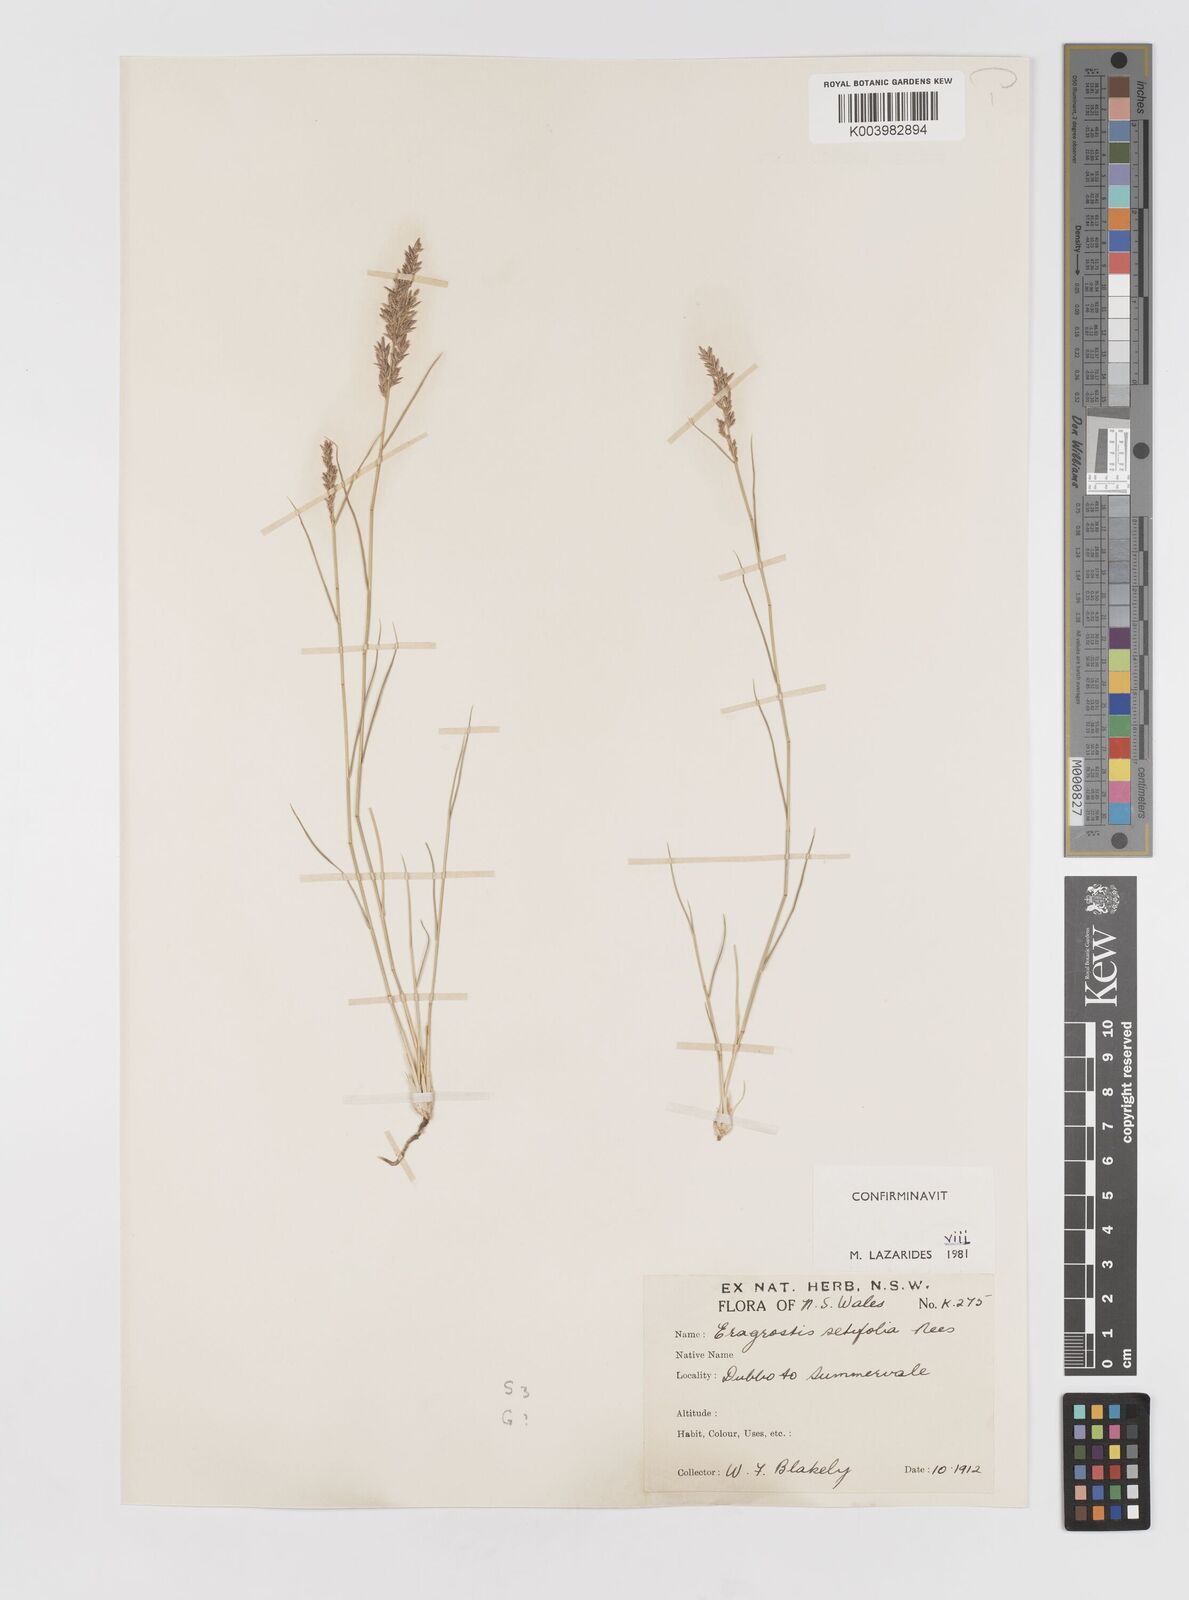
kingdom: Plantae
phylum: Tracheophyta
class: Liliopsida
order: Poales
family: Poaceae
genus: Eragrostis
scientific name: Eragrostis setifolia
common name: Bristleleaf lovegrass
